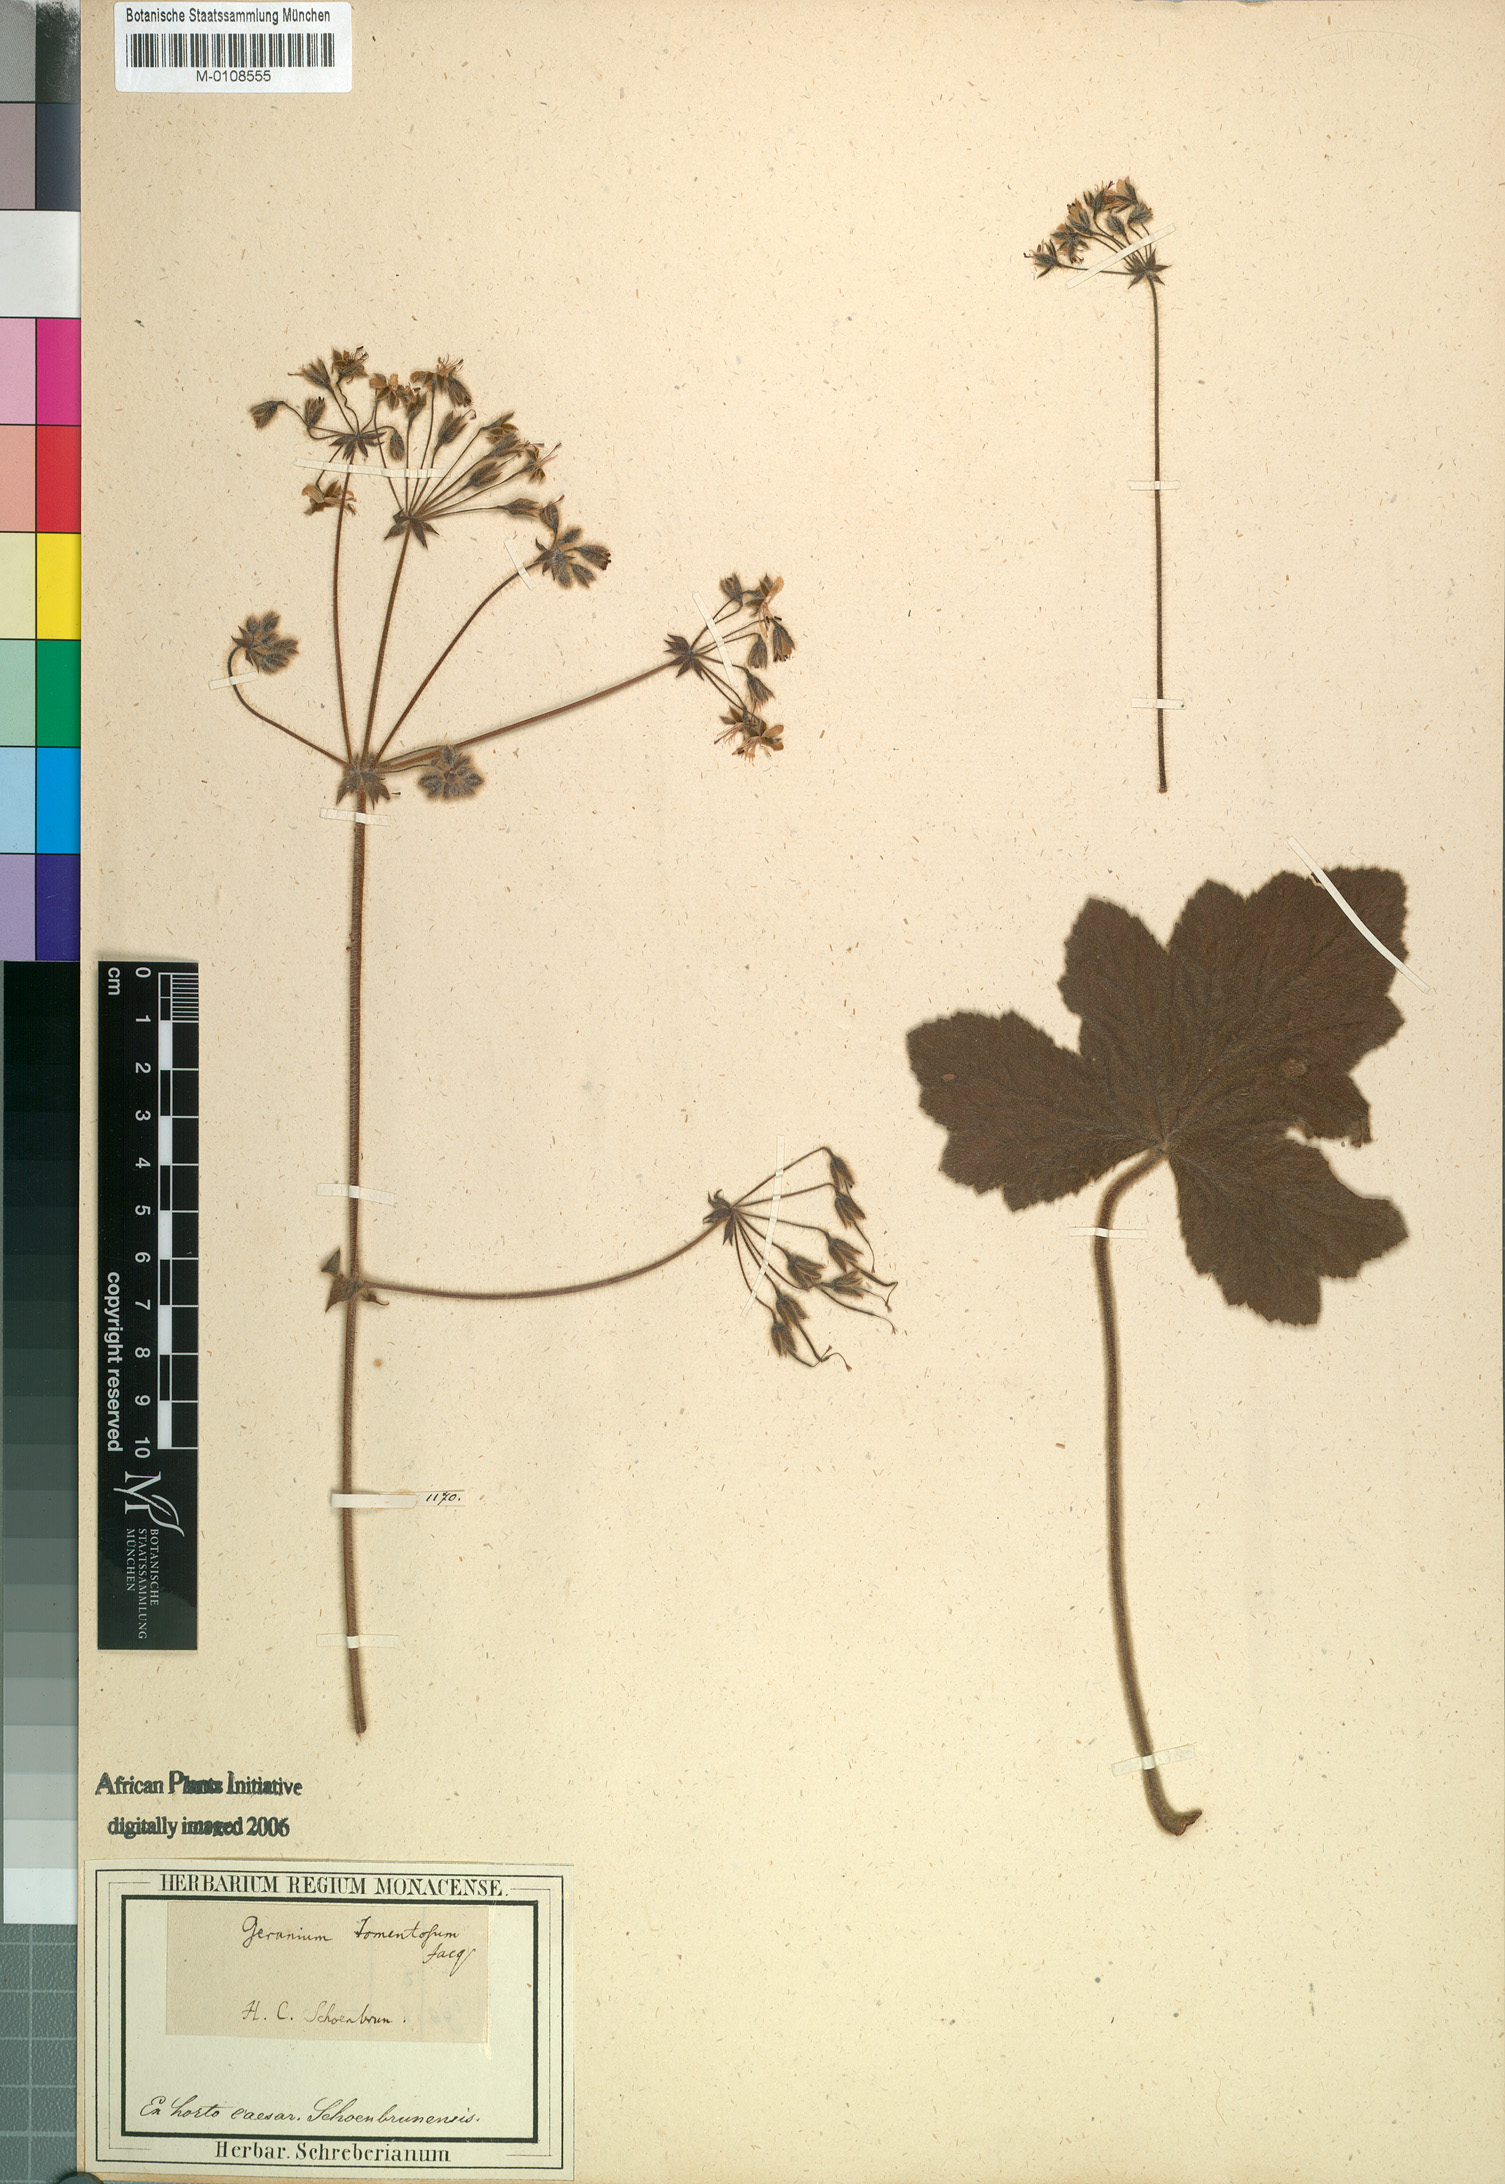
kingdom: Plantae
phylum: Tracheophyta
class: Magnoliopsida
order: Geraniales
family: Geraniaceae
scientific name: Geraniaceae
